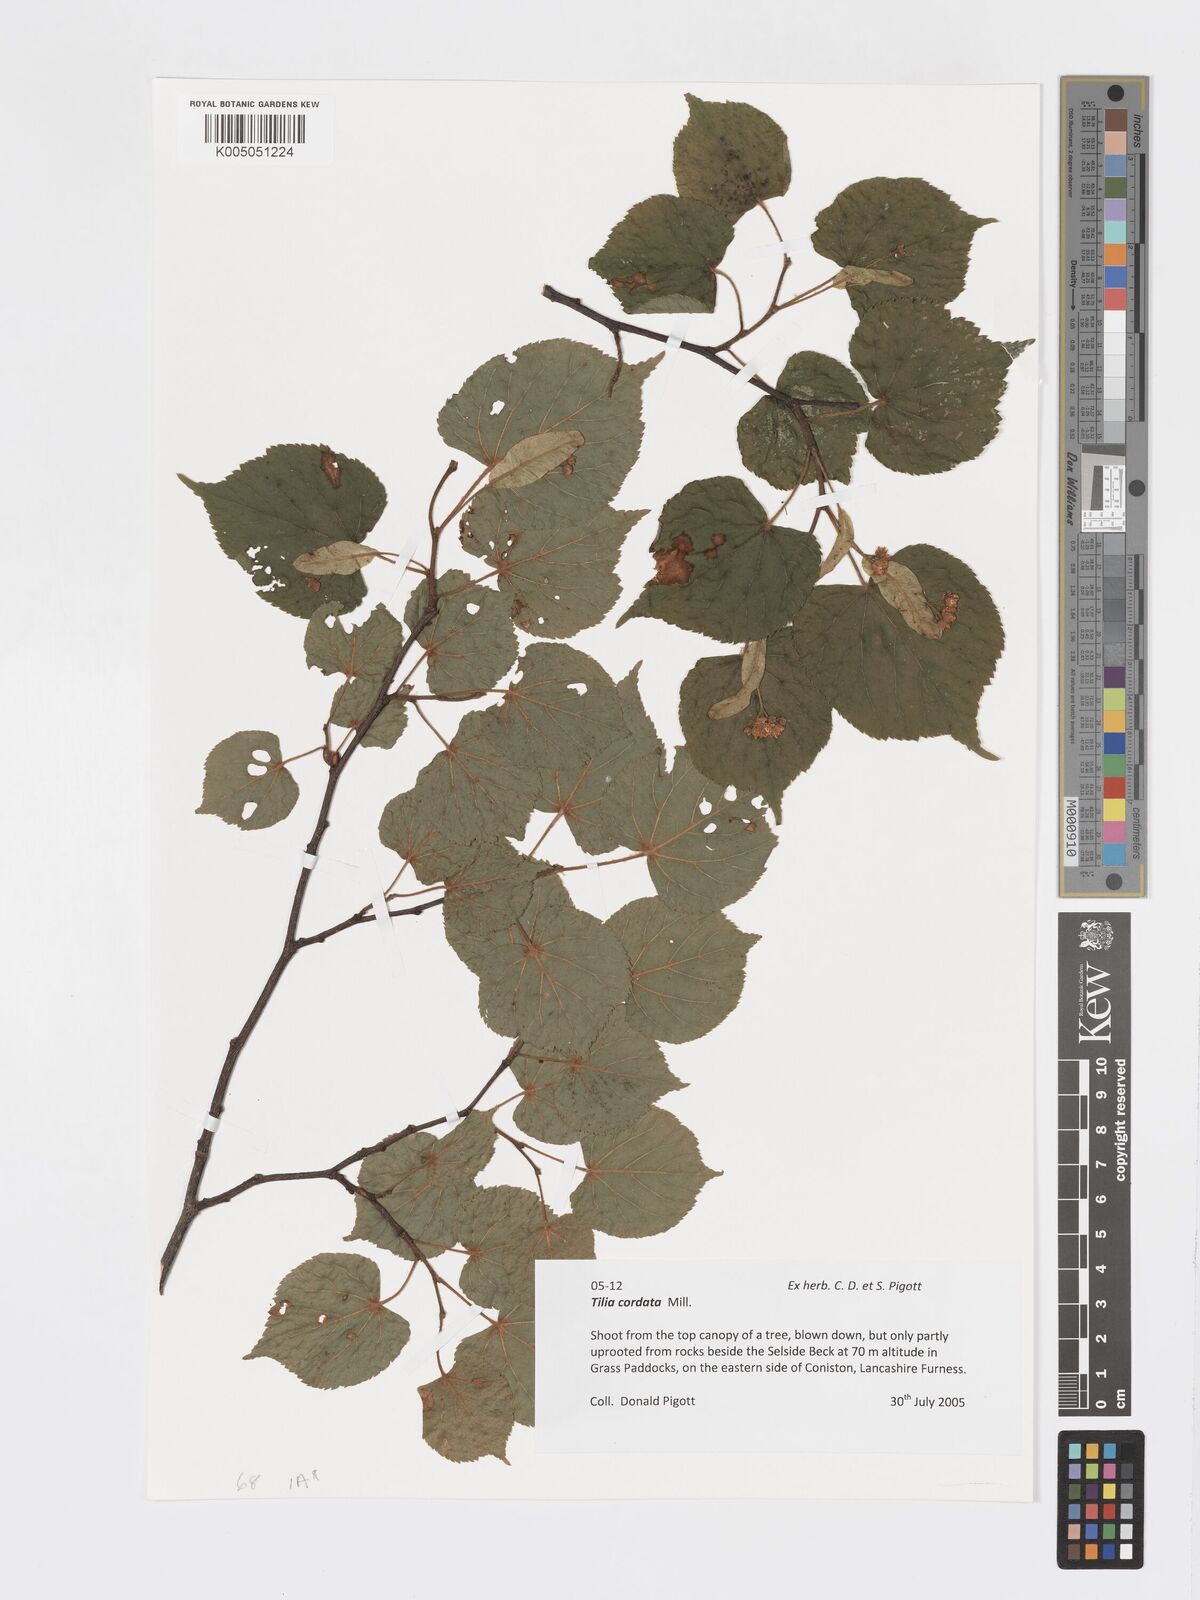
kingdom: Plantae
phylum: Tracheophyta
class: Magnoliopsida
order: Malvales
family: Malvaceae
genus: Tilia
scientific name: Tilia cordata
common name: Small-leaved lime
